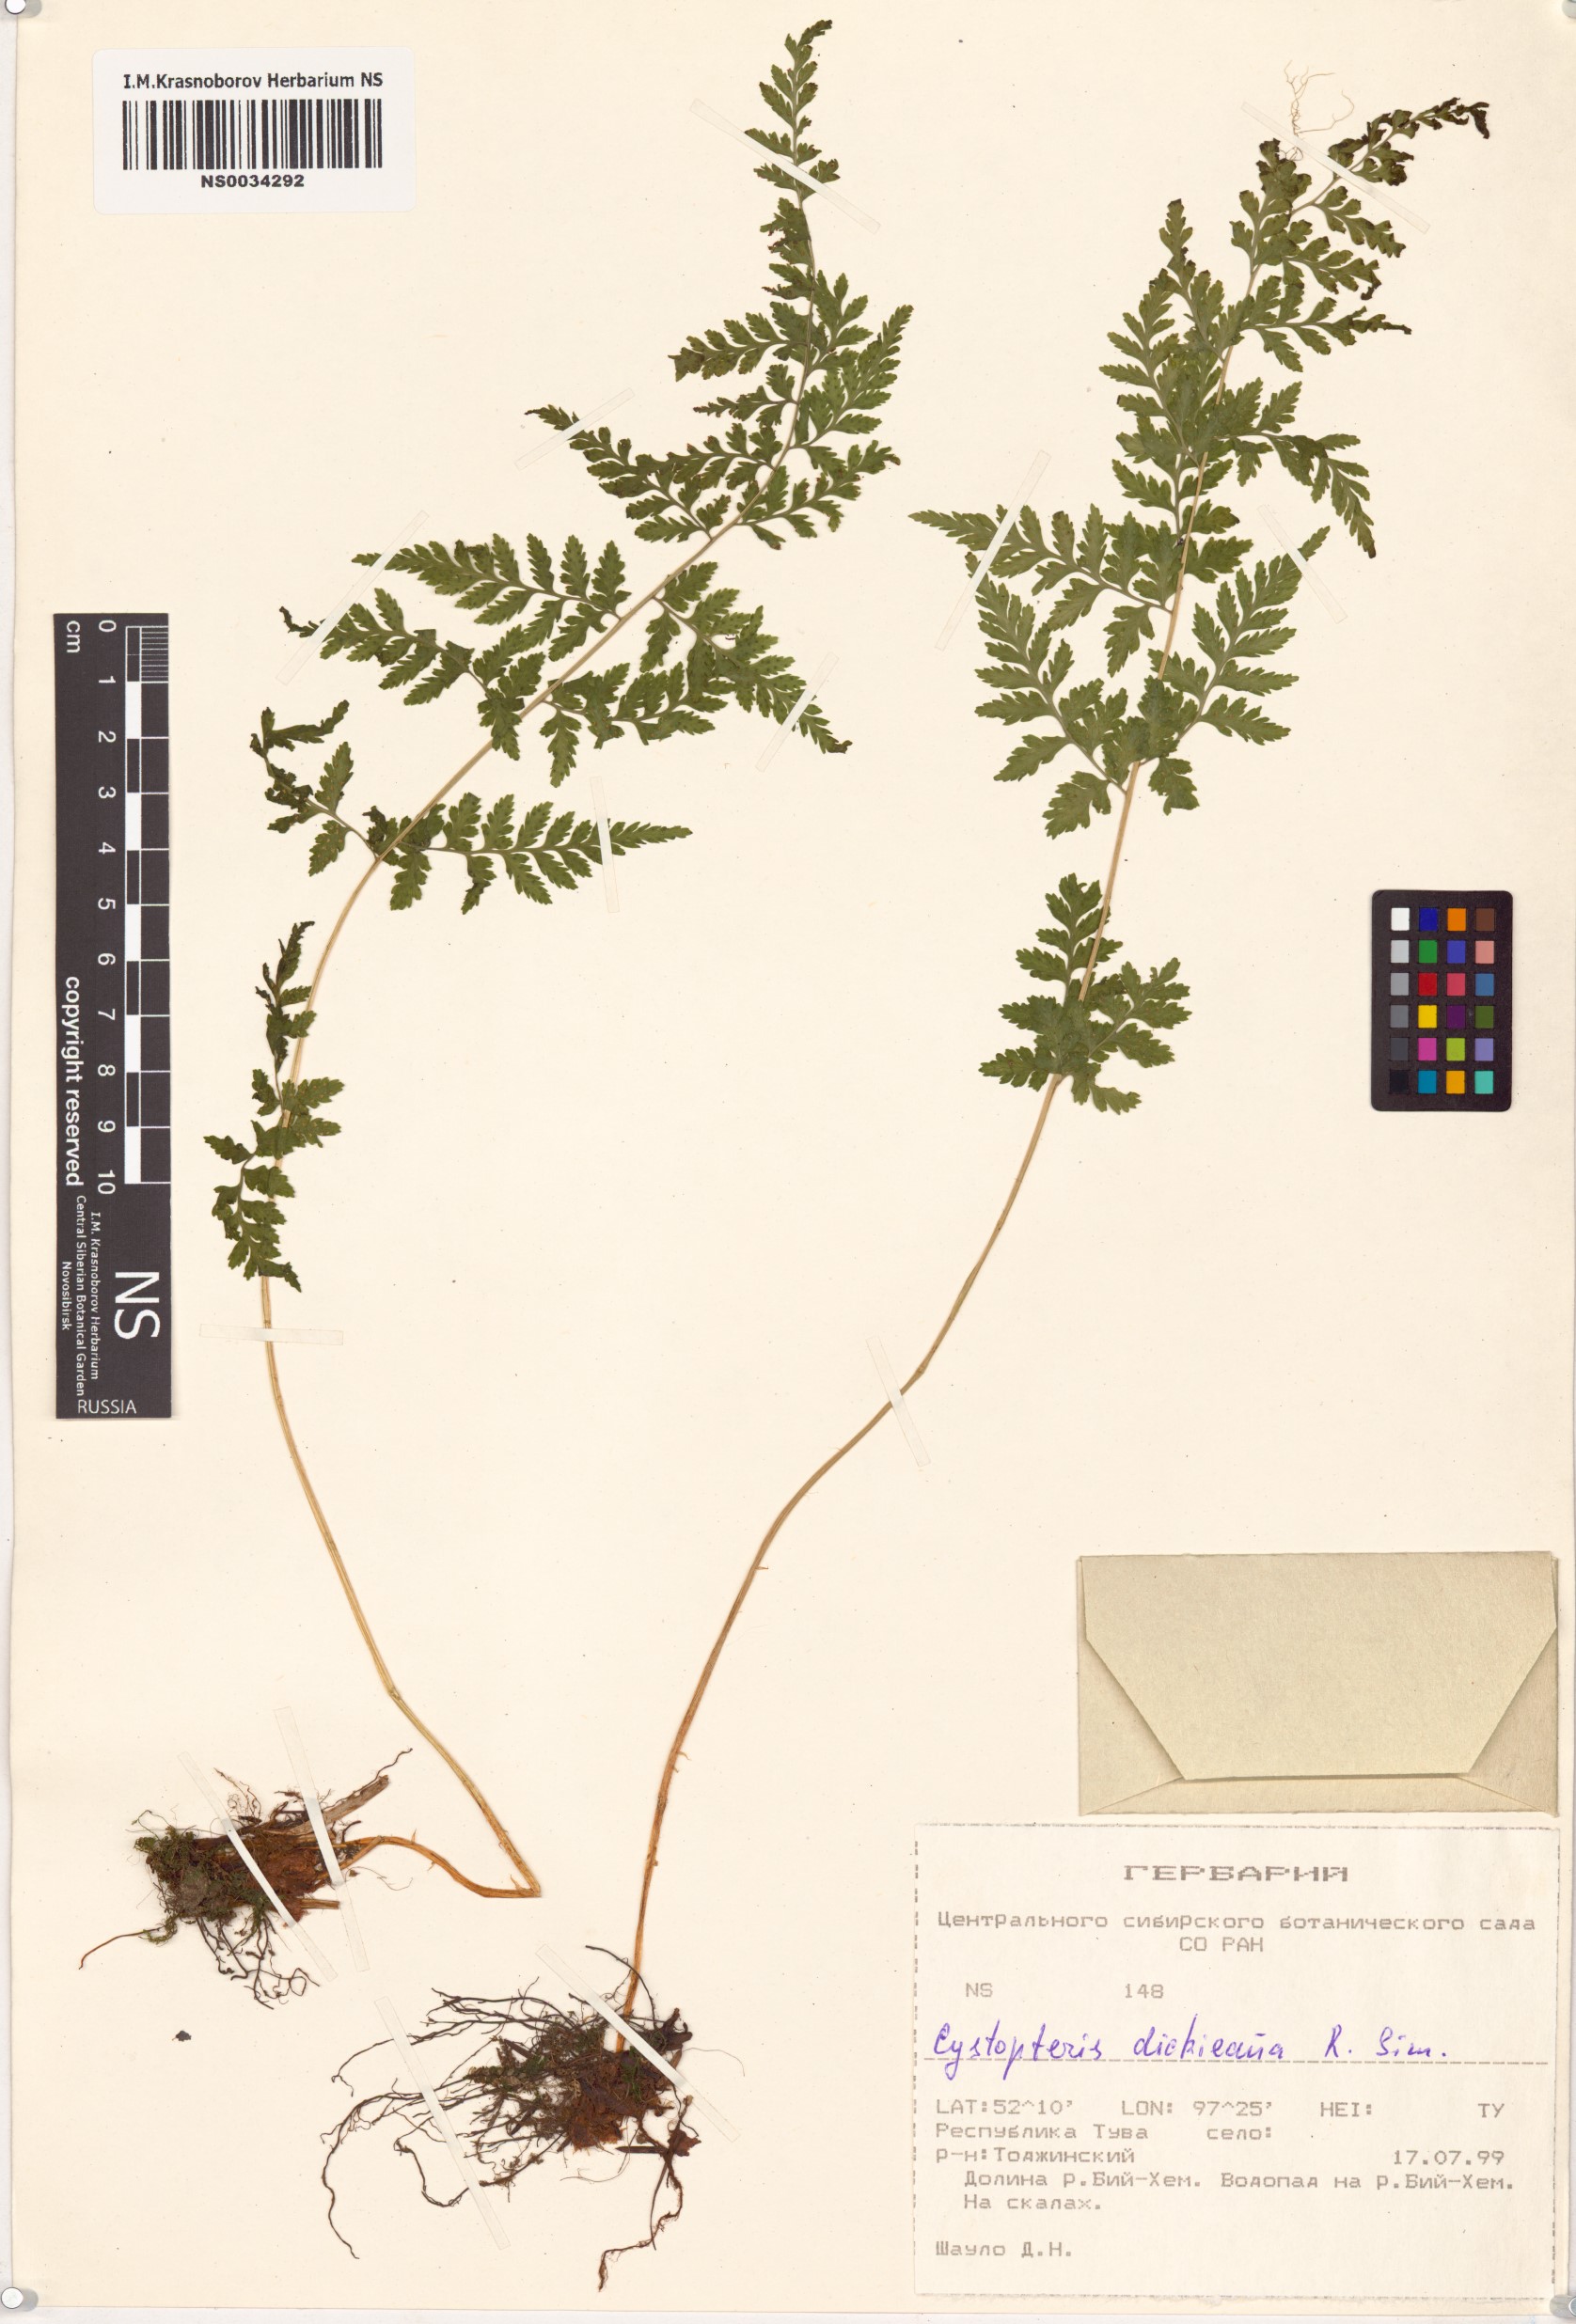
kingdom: Plantae
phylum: Tracheophyta
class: Polypodiopsida
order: Polypodiales
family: Cystopteridaceae
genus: Cystopteris
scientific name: Cystopteris dickieana
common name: Dickie's bladder-fern
